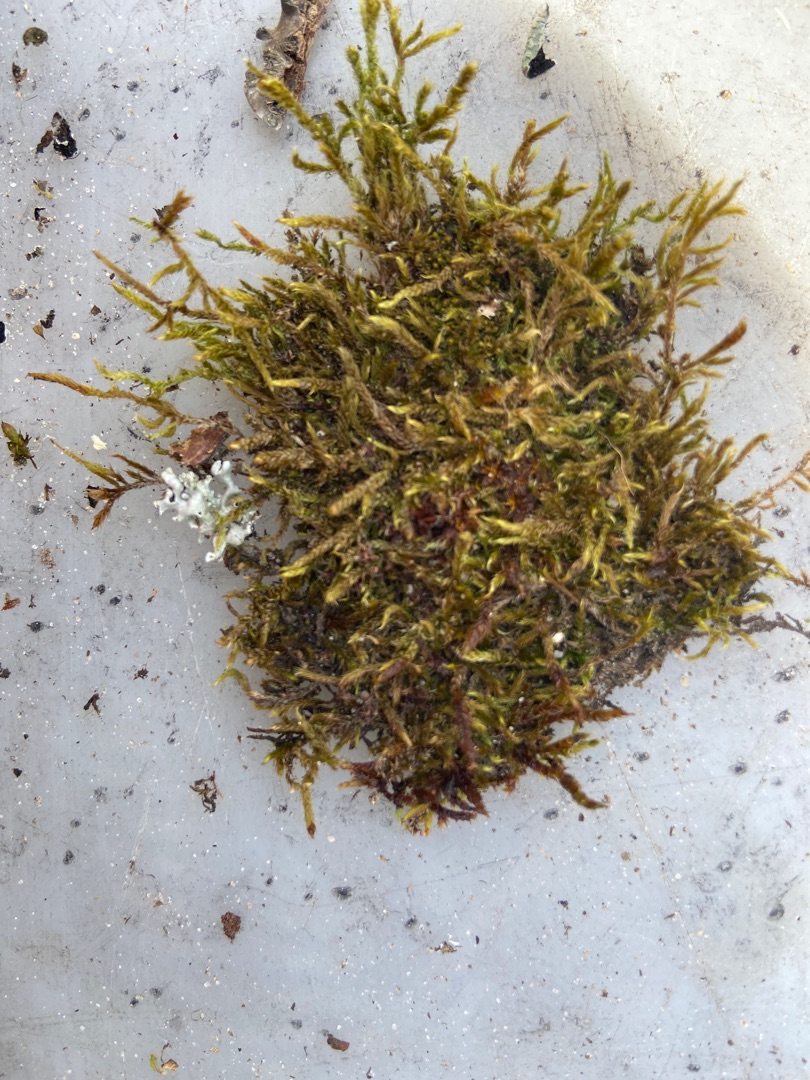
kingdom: Plantae
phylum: Bryophyta
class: Bryopsida
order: Hypnales
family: Hypnaceae
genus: Hypnum
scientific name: Hypnum cupressiforme
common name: Almindelig cypresmos
